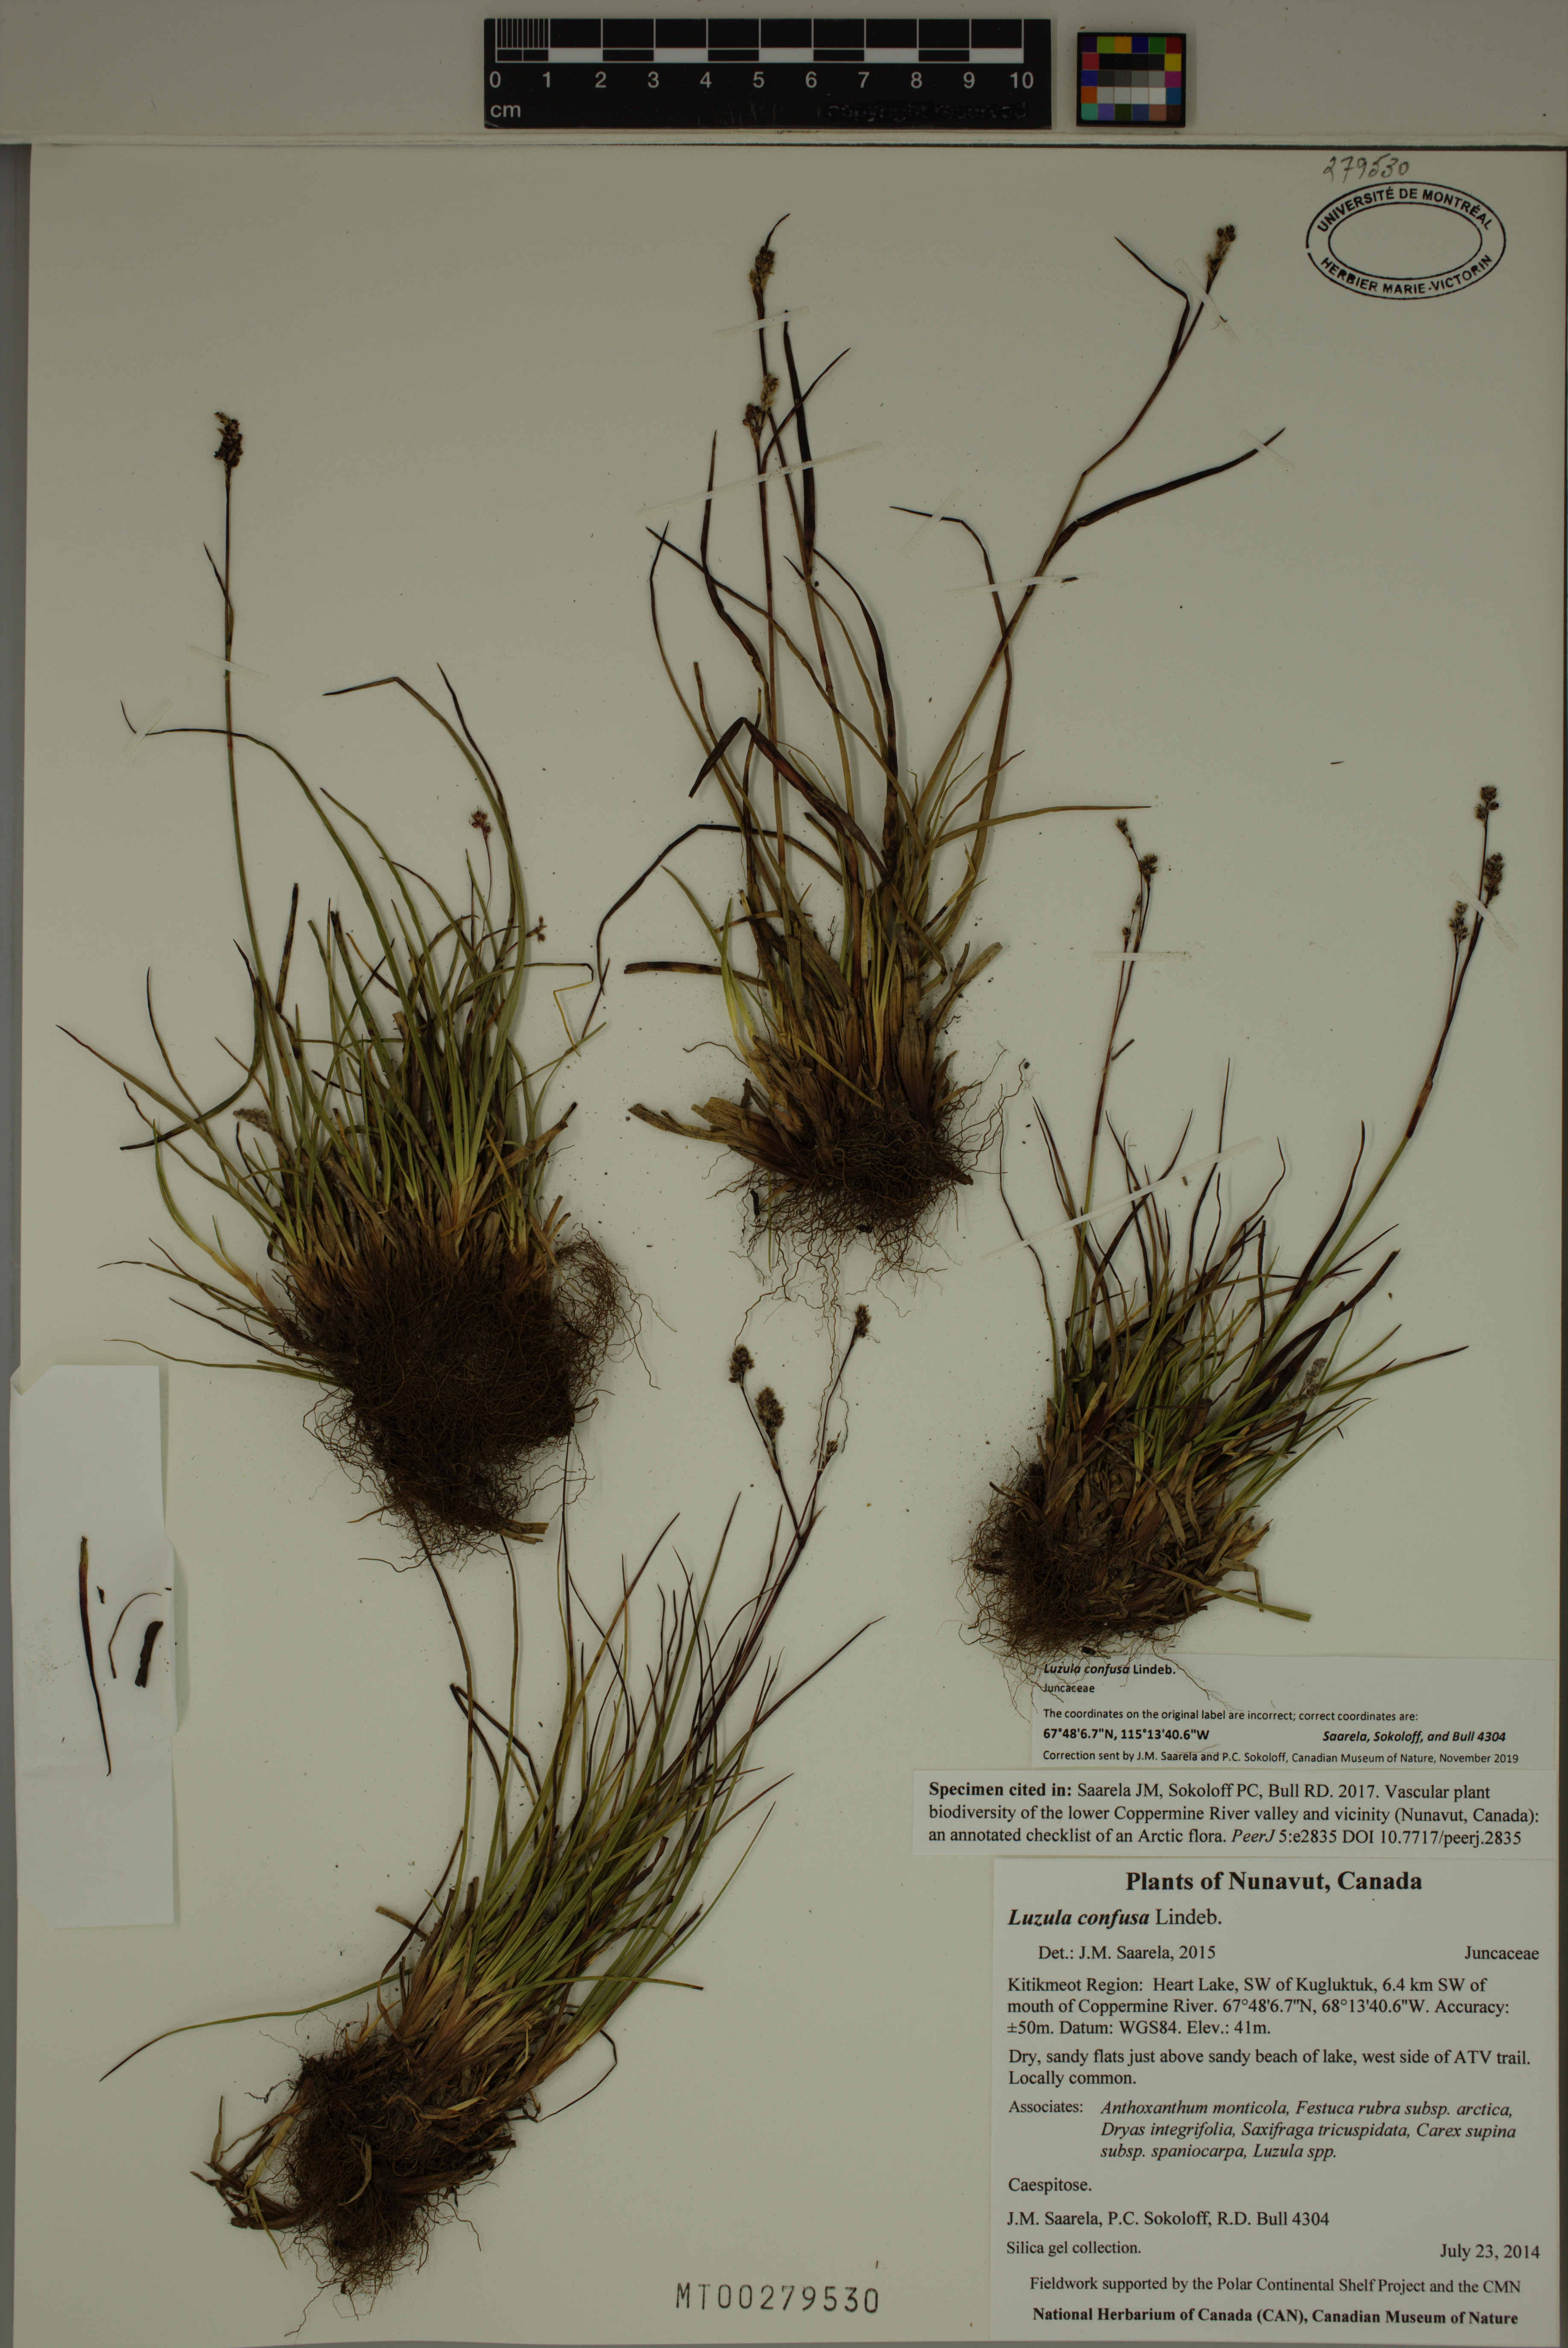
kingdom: Plantae
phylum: Tracheophyta
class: Liliopsida
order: Poales
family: Juncaceae
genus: Luzula
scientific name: Luzula confusa
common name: Northern wood rush
